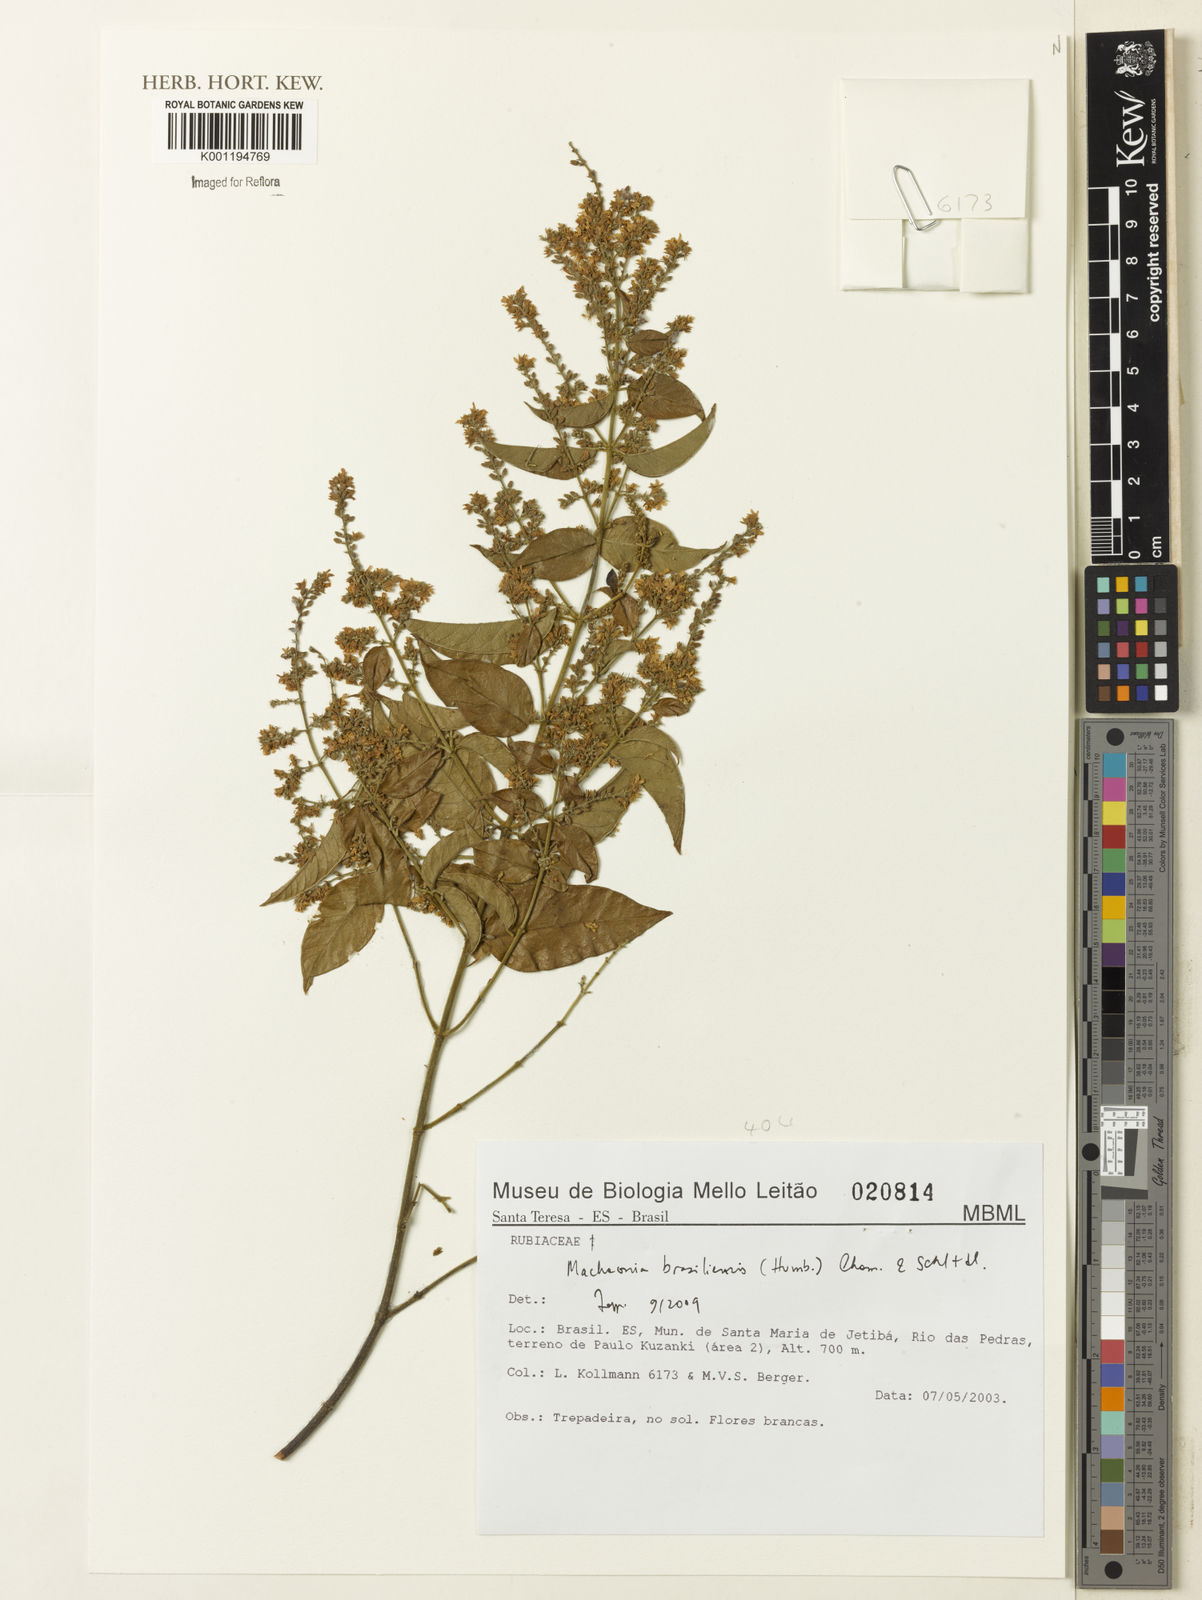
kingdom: Plantae
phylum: Tracheophyta
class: Magnoliopsida
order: Gentianales
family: Rubiaceae
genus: Machaonia
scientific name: Machaonia brasiliensis
